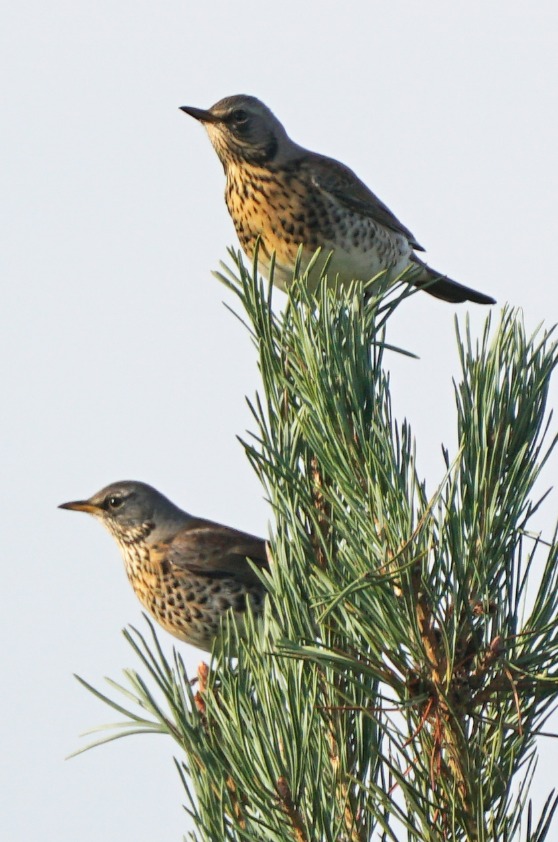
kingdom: Animalia
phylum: Chordata
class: Aves
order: Passeriformes
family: Turdidae
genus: Turdus
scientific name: Turdus pilaris
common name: Sjagger
